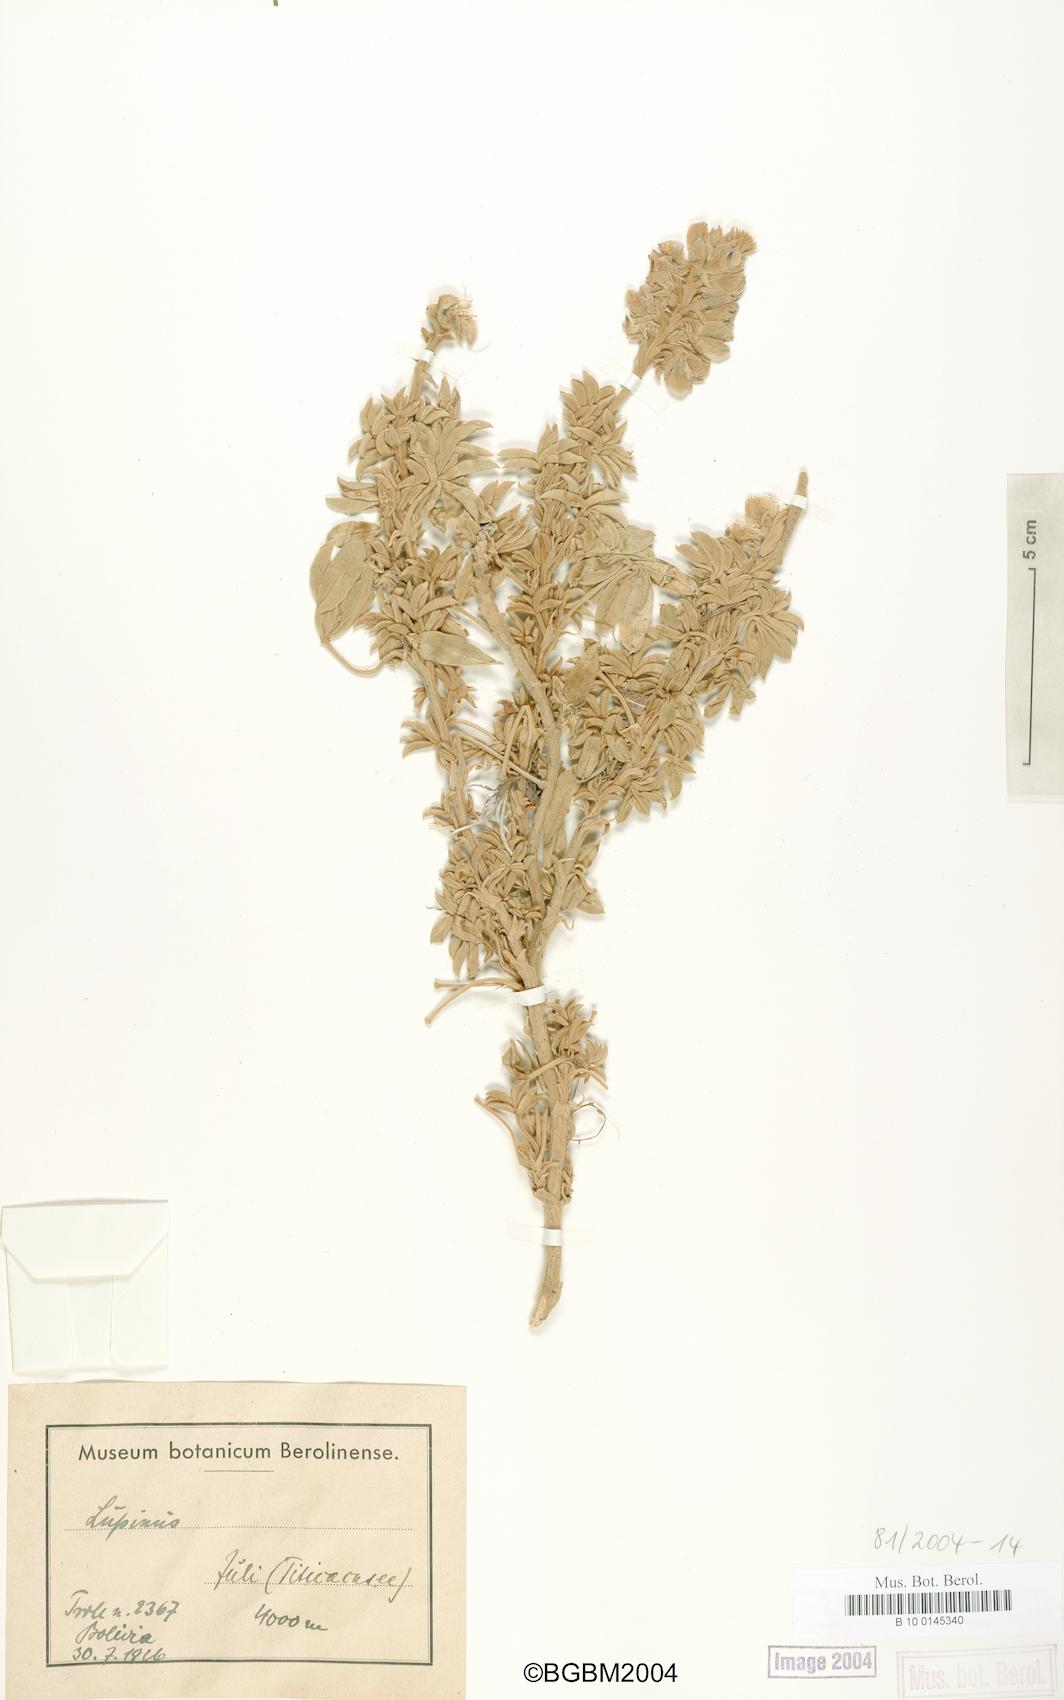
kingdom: Plantae
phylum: Tracheophyta
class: Magnoliopsida
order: Fabales
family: Fabaceae
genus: Lupinus
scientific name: Lupinus
